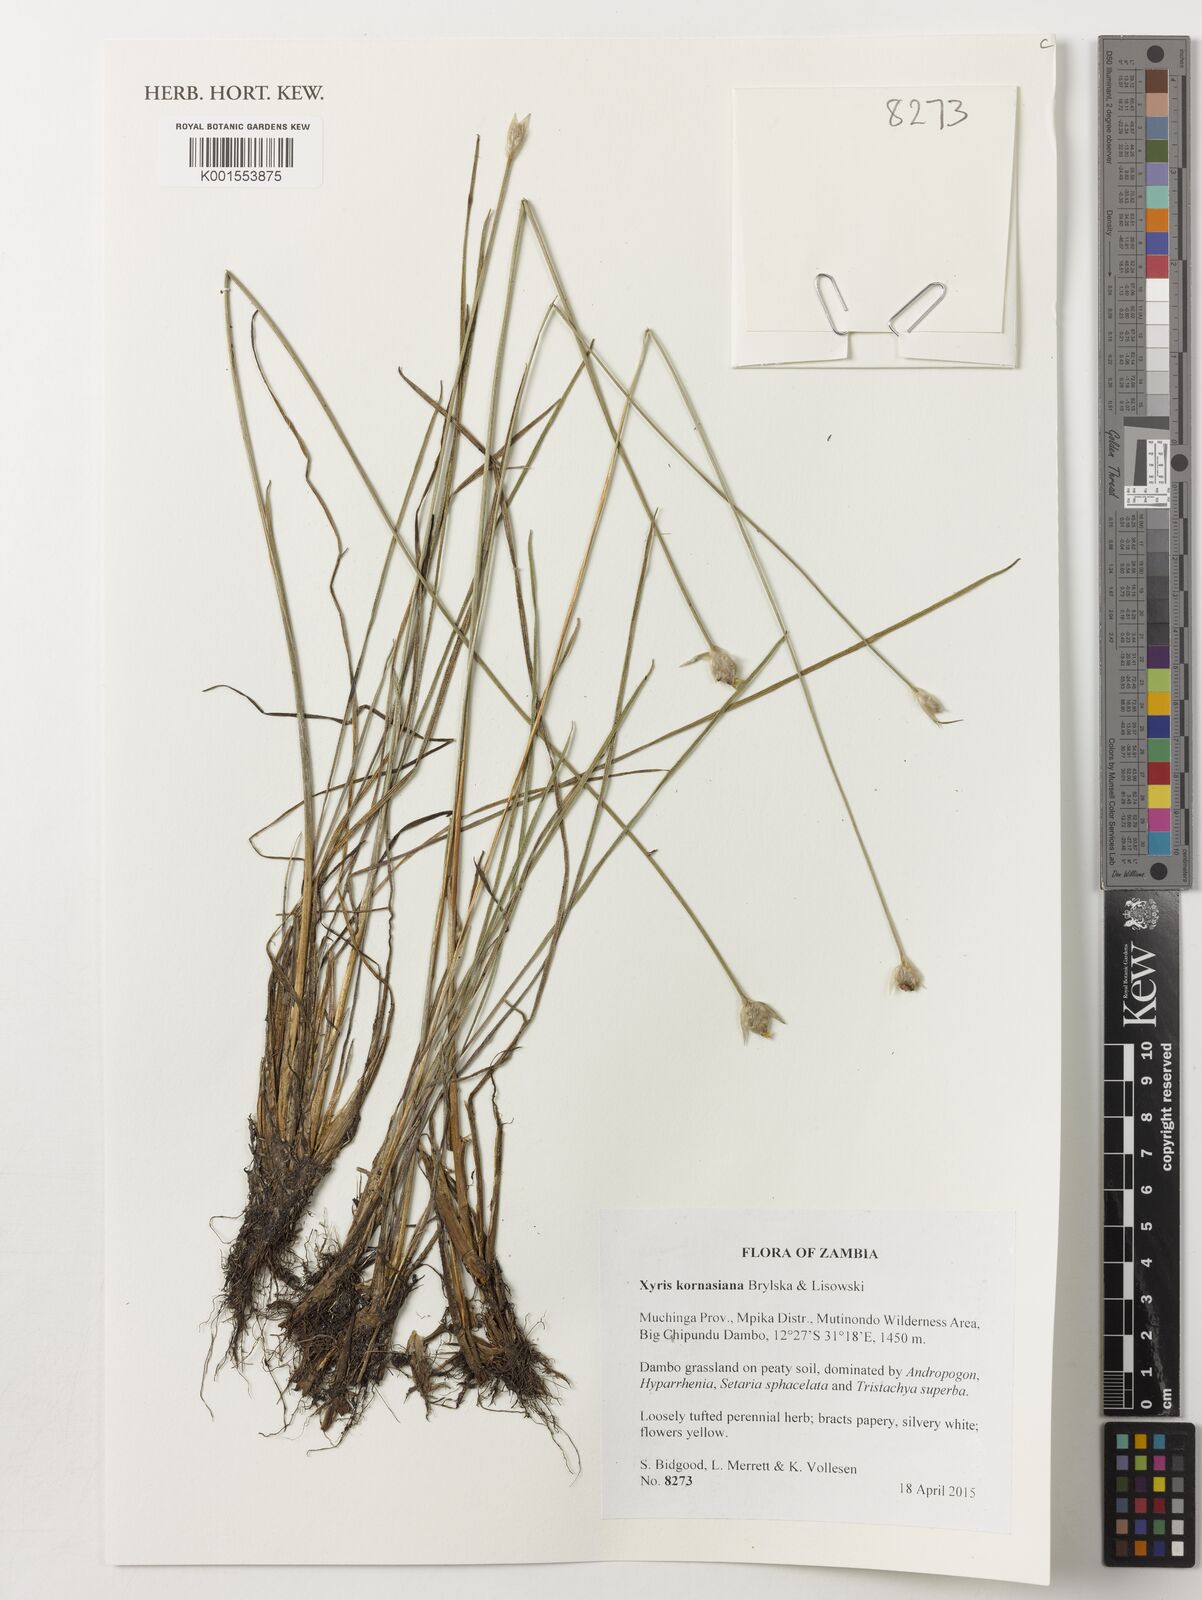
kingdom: Plantae
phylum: Tracheophyta
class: Liliopsida
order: Poales
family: Xyridaceae
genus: Xyris
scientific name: Xyris kornasiana
